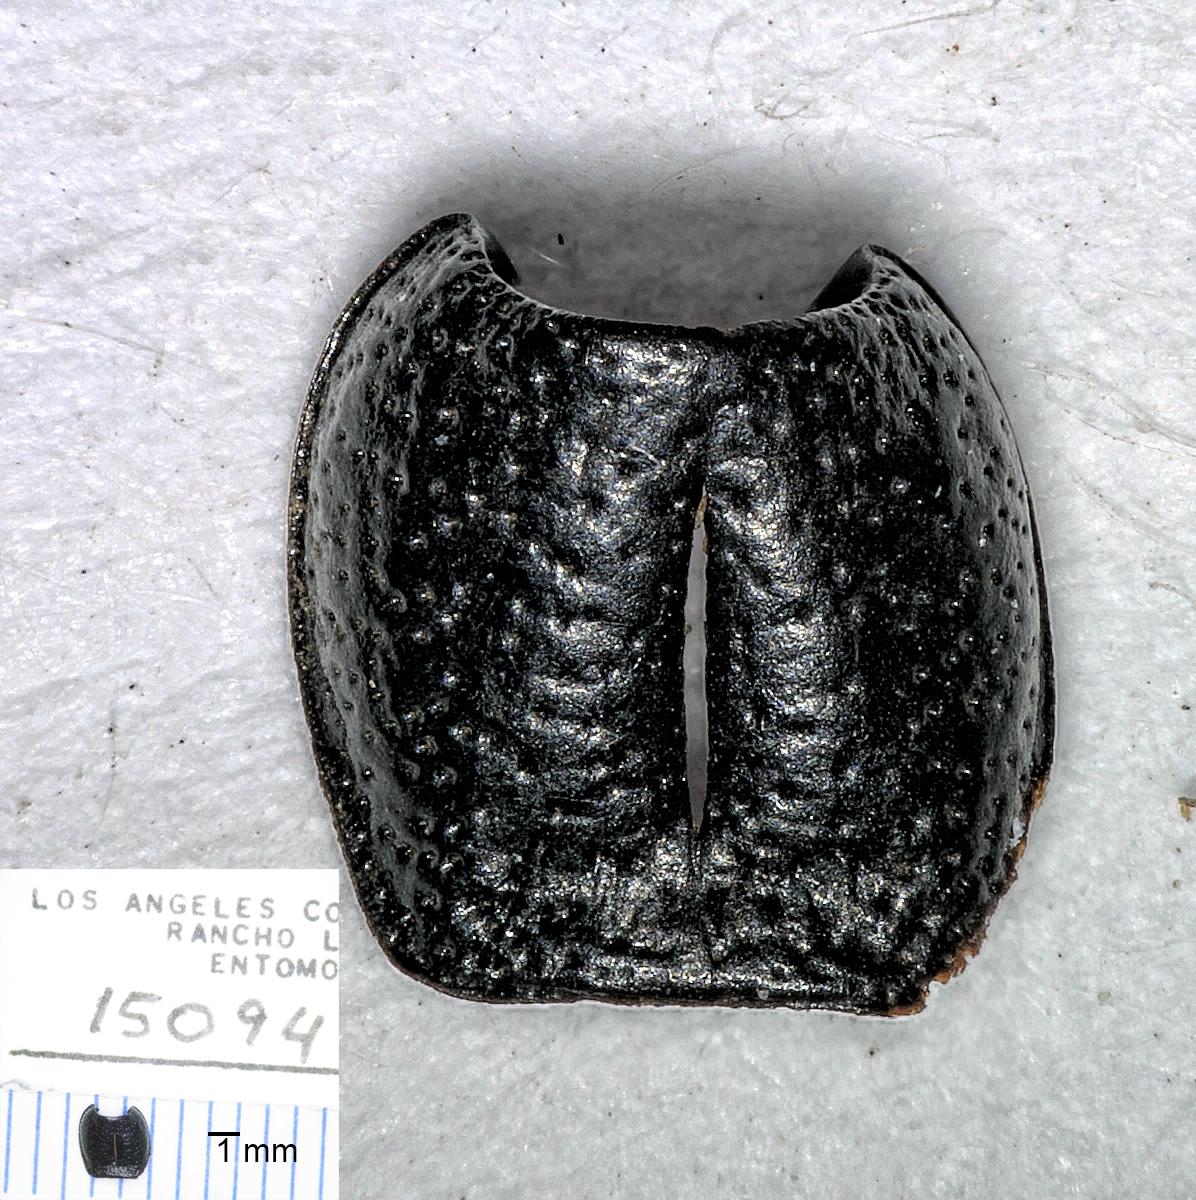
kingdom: Animalia
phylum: Arthropoda
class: Insecta
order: Coleoptera
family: Carabidae
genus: Dicheirus
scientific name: Dicheirus piceus
